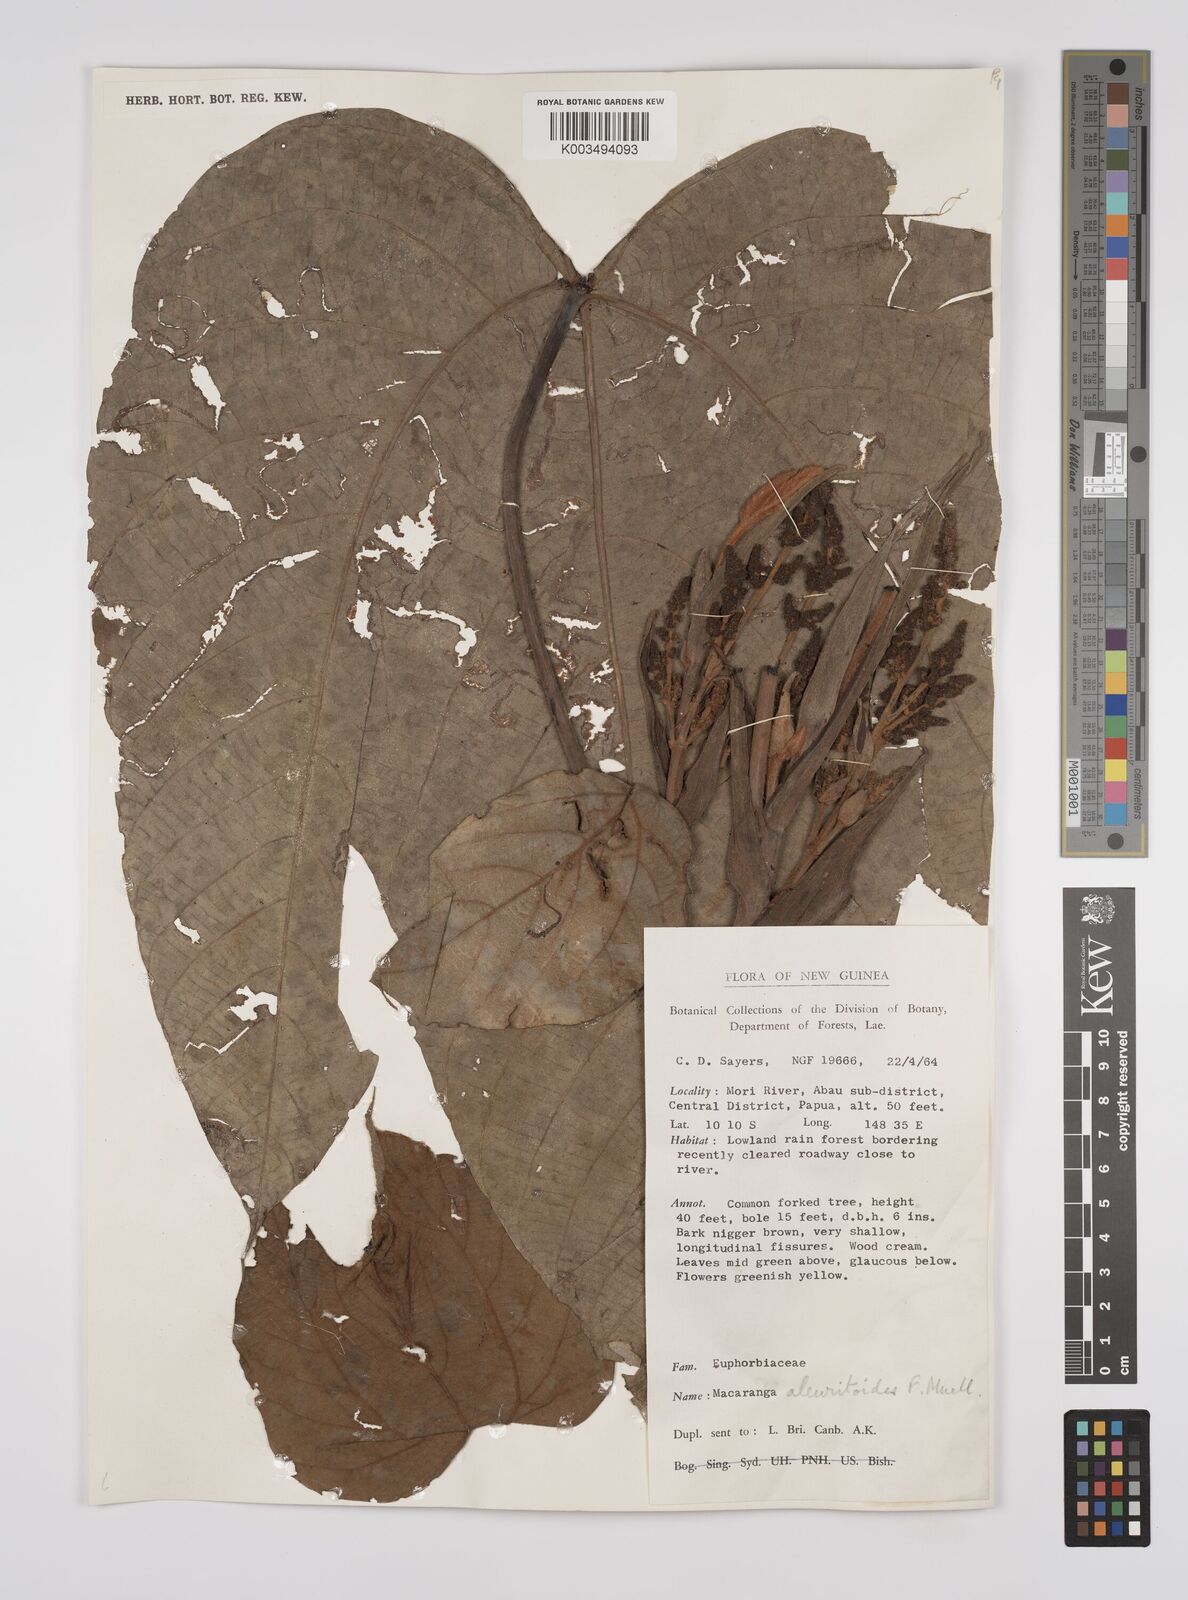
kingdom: Plantae
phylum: Tracheophyta
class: Magnoliopsida
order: Malpighiales
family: Euphorbiaceae
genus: Macaranga
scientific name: Macaranga aleuritoides
